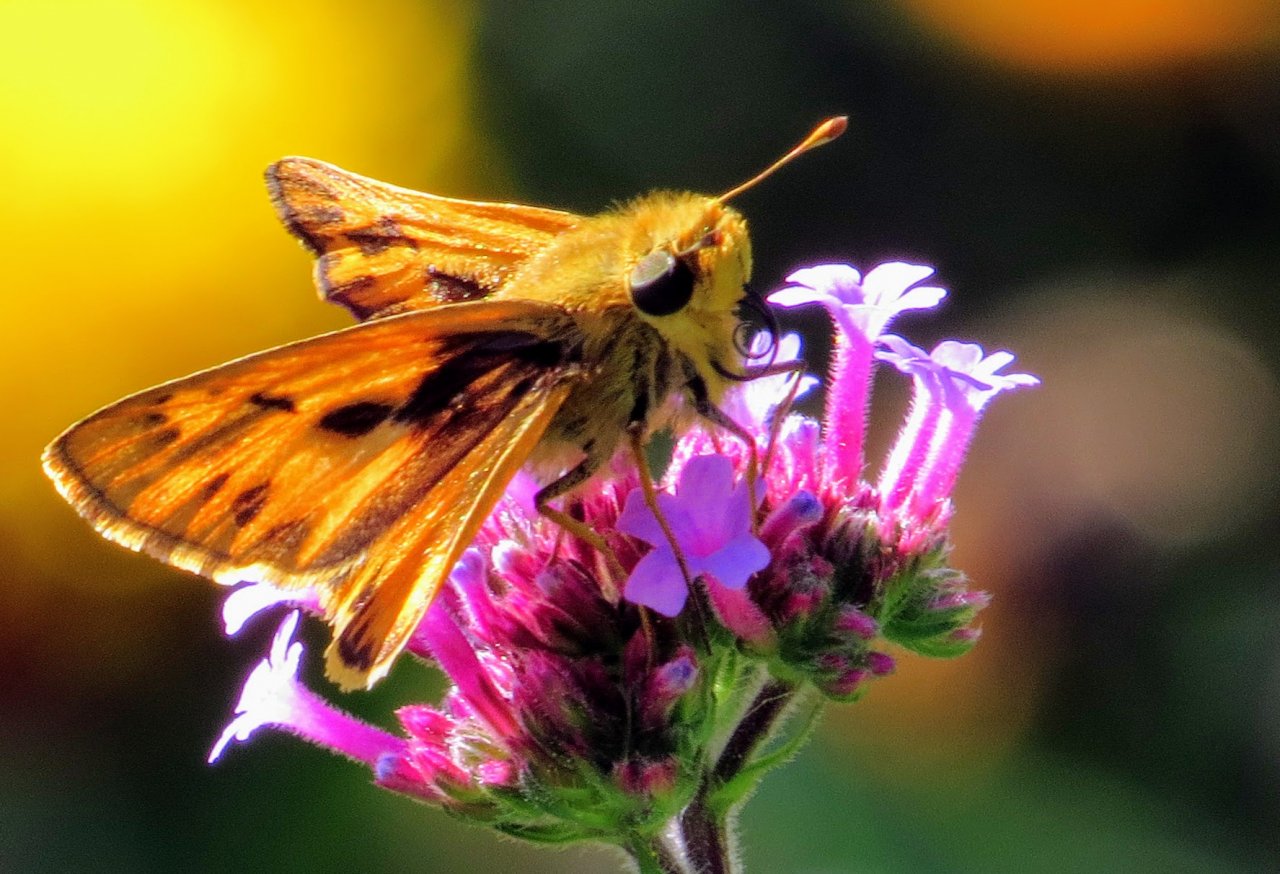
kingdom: Animalia
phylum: Arthropoda
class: Insecta
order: Lepidoptera
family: Hesperiidae
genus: Hylephila
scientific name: Hylephila phyleus
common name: Fiery Skipper
